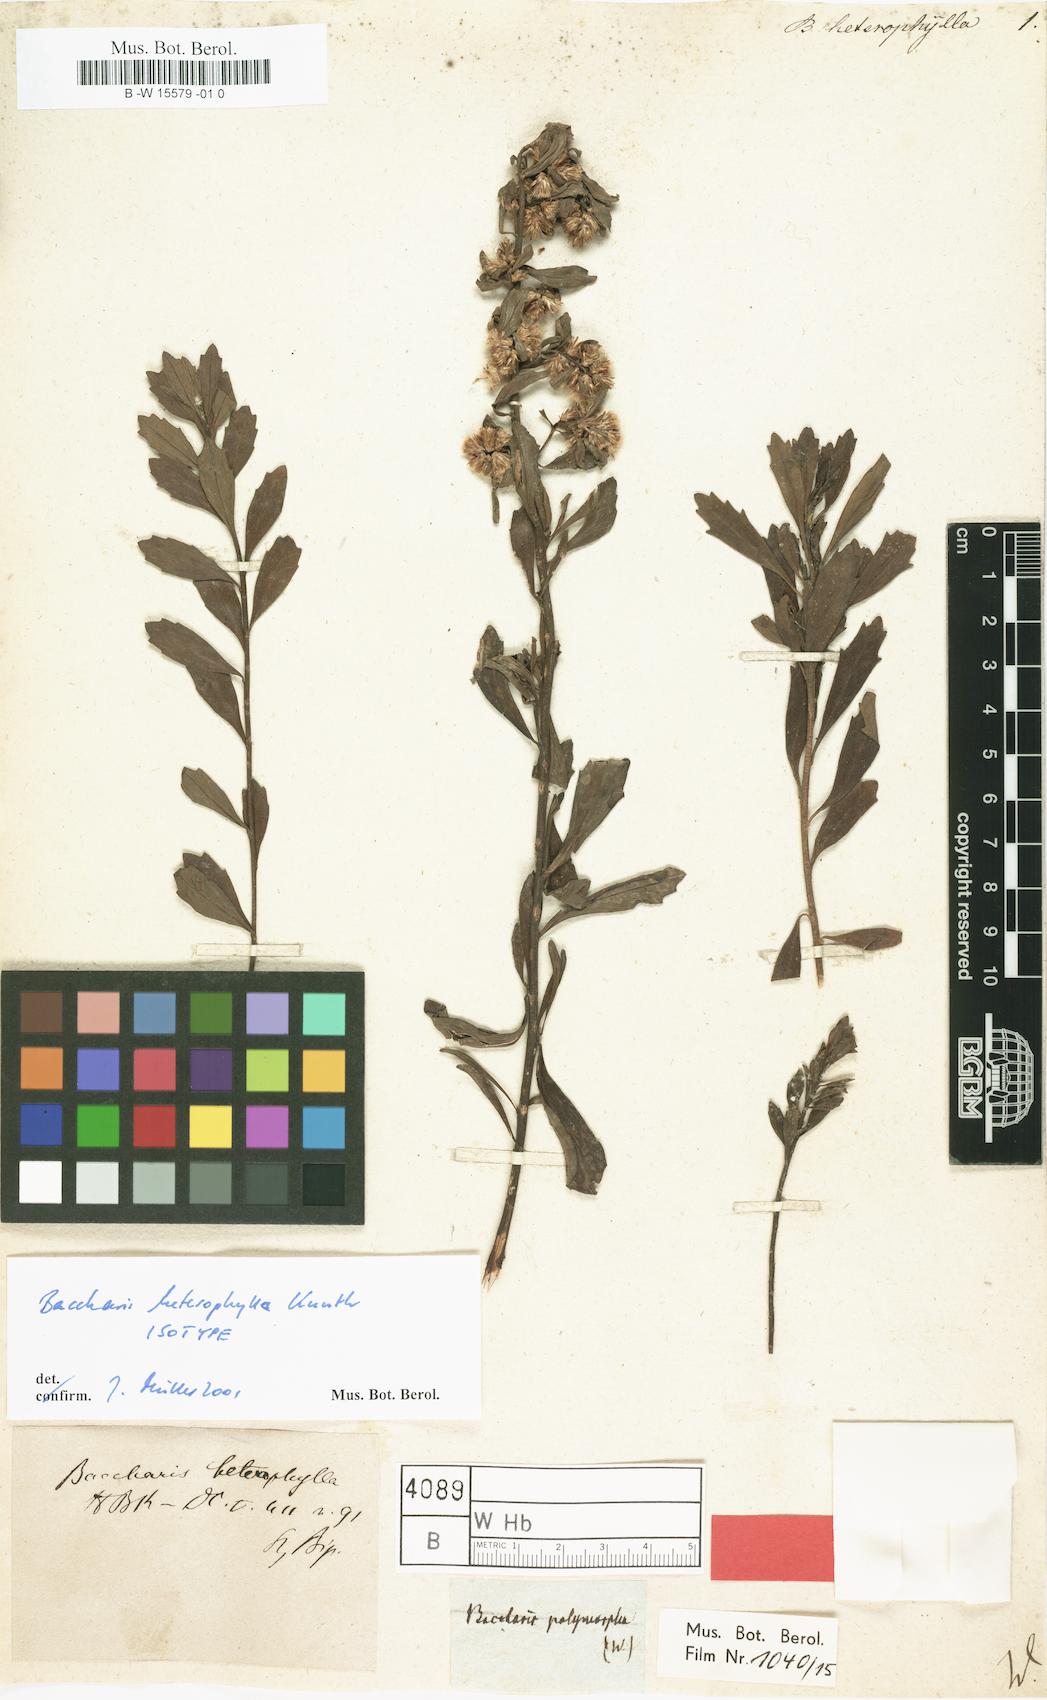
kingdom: Plantae
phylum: Tracheophyta
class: Magnoliopsida
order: Asterales
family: Asteraceae
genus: Baccharis
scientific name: Baccharis heterophylla
